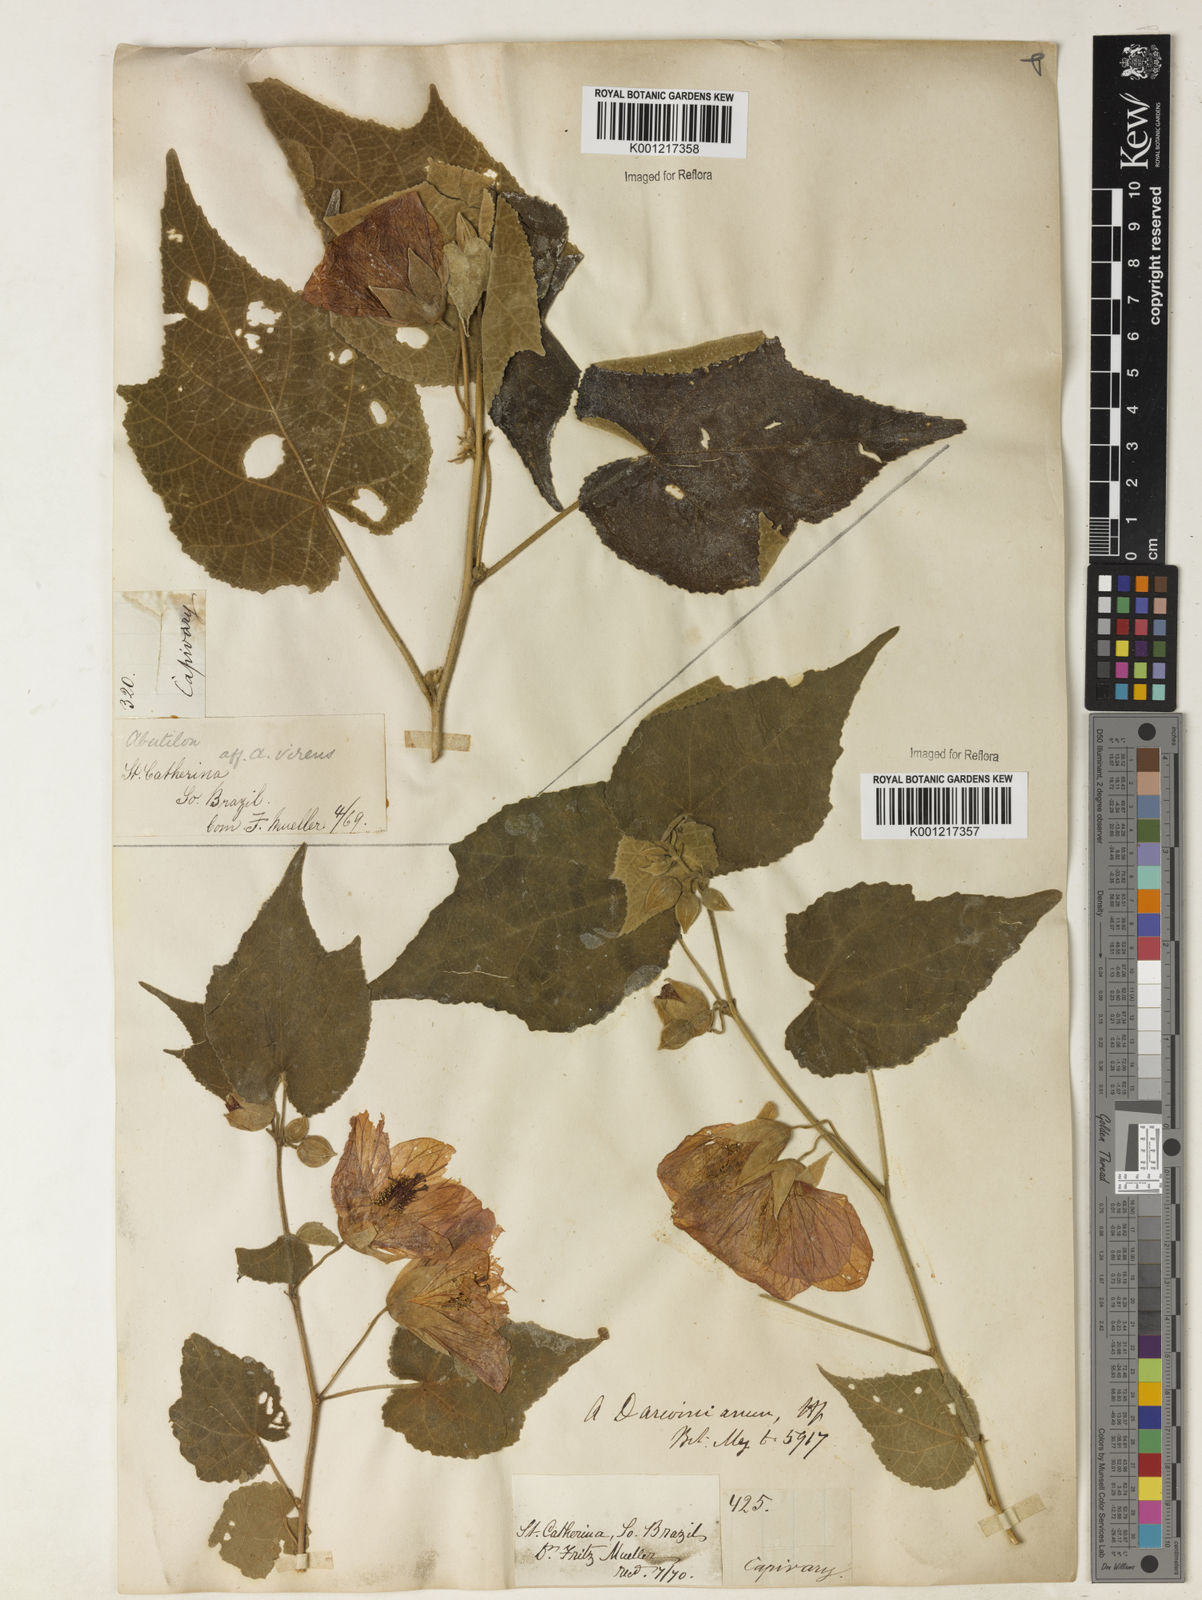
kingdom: Plantae
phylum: Tracheophyta
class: Magnoliopsida
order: Malvales
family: Malvaceae
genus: Callianthe
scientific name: Callianthe darwinii
